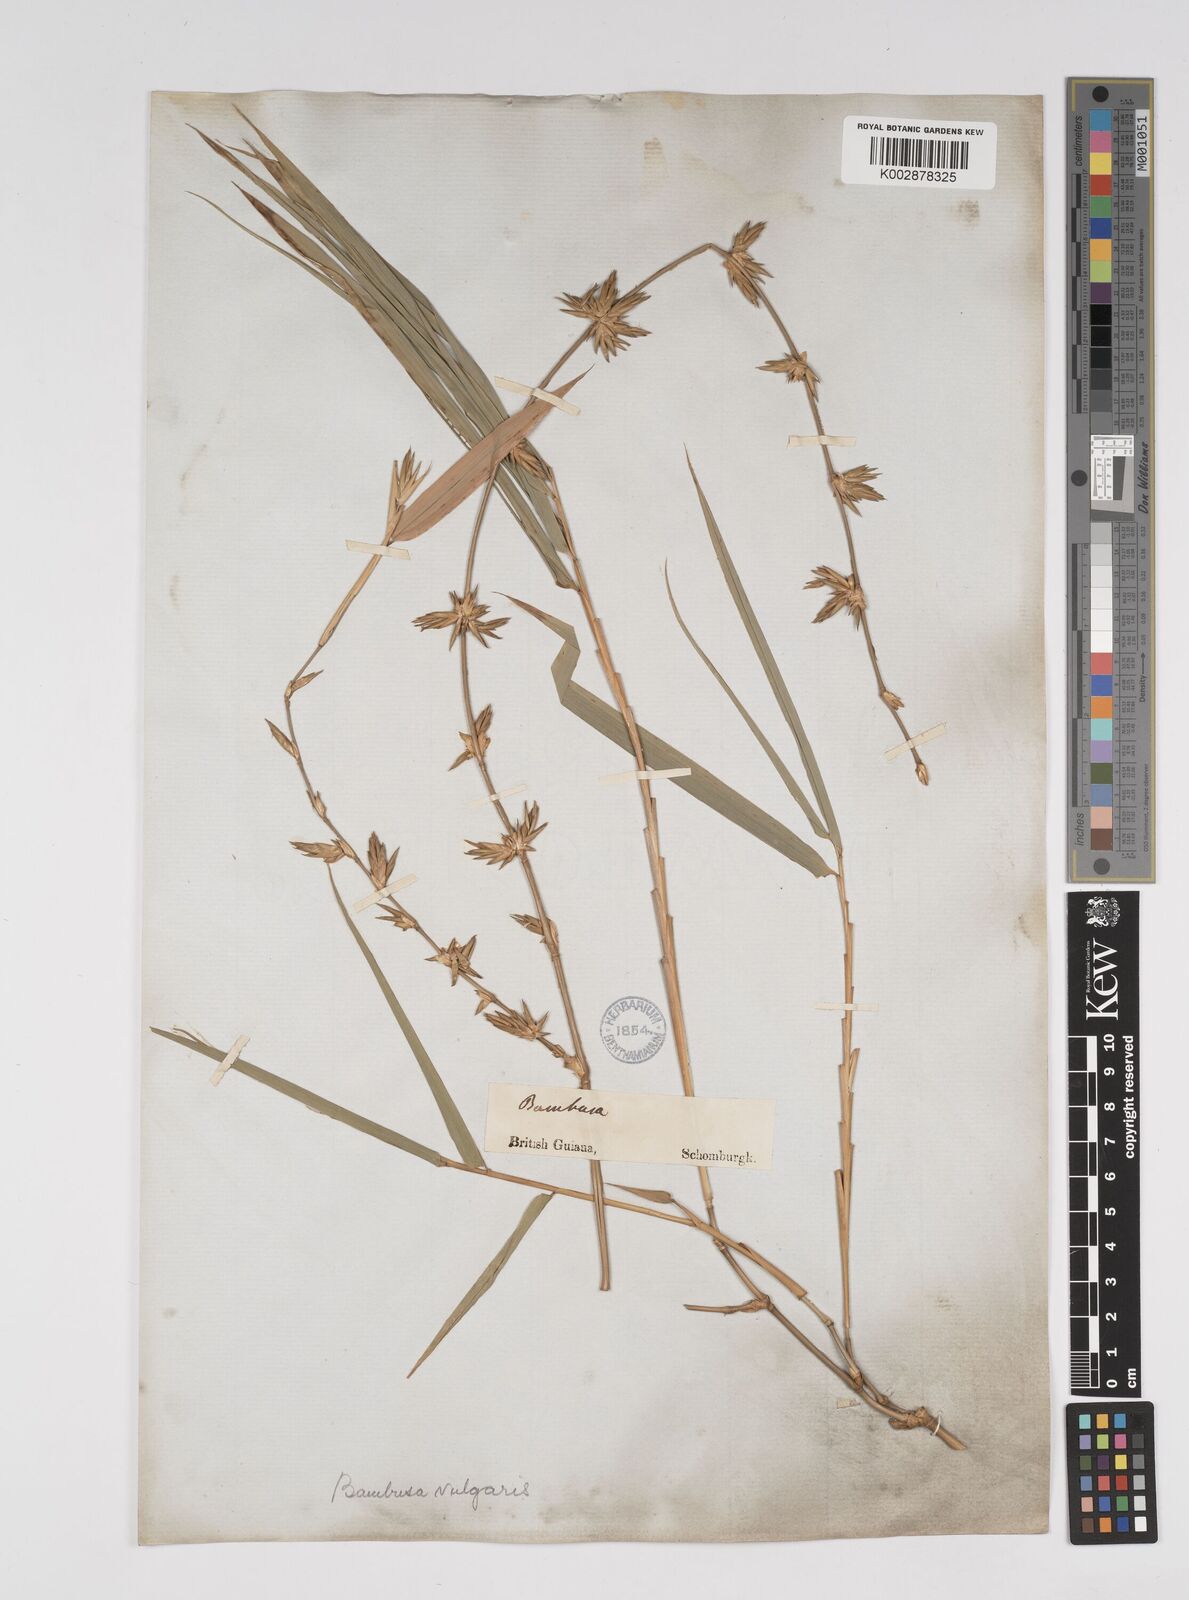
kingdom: Plantae
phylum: Tracheophyta
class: Liliopsida
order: Poales
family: Poaceae
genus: Bambusa
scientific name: Bambusa vulgaris
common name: Common bamboo
